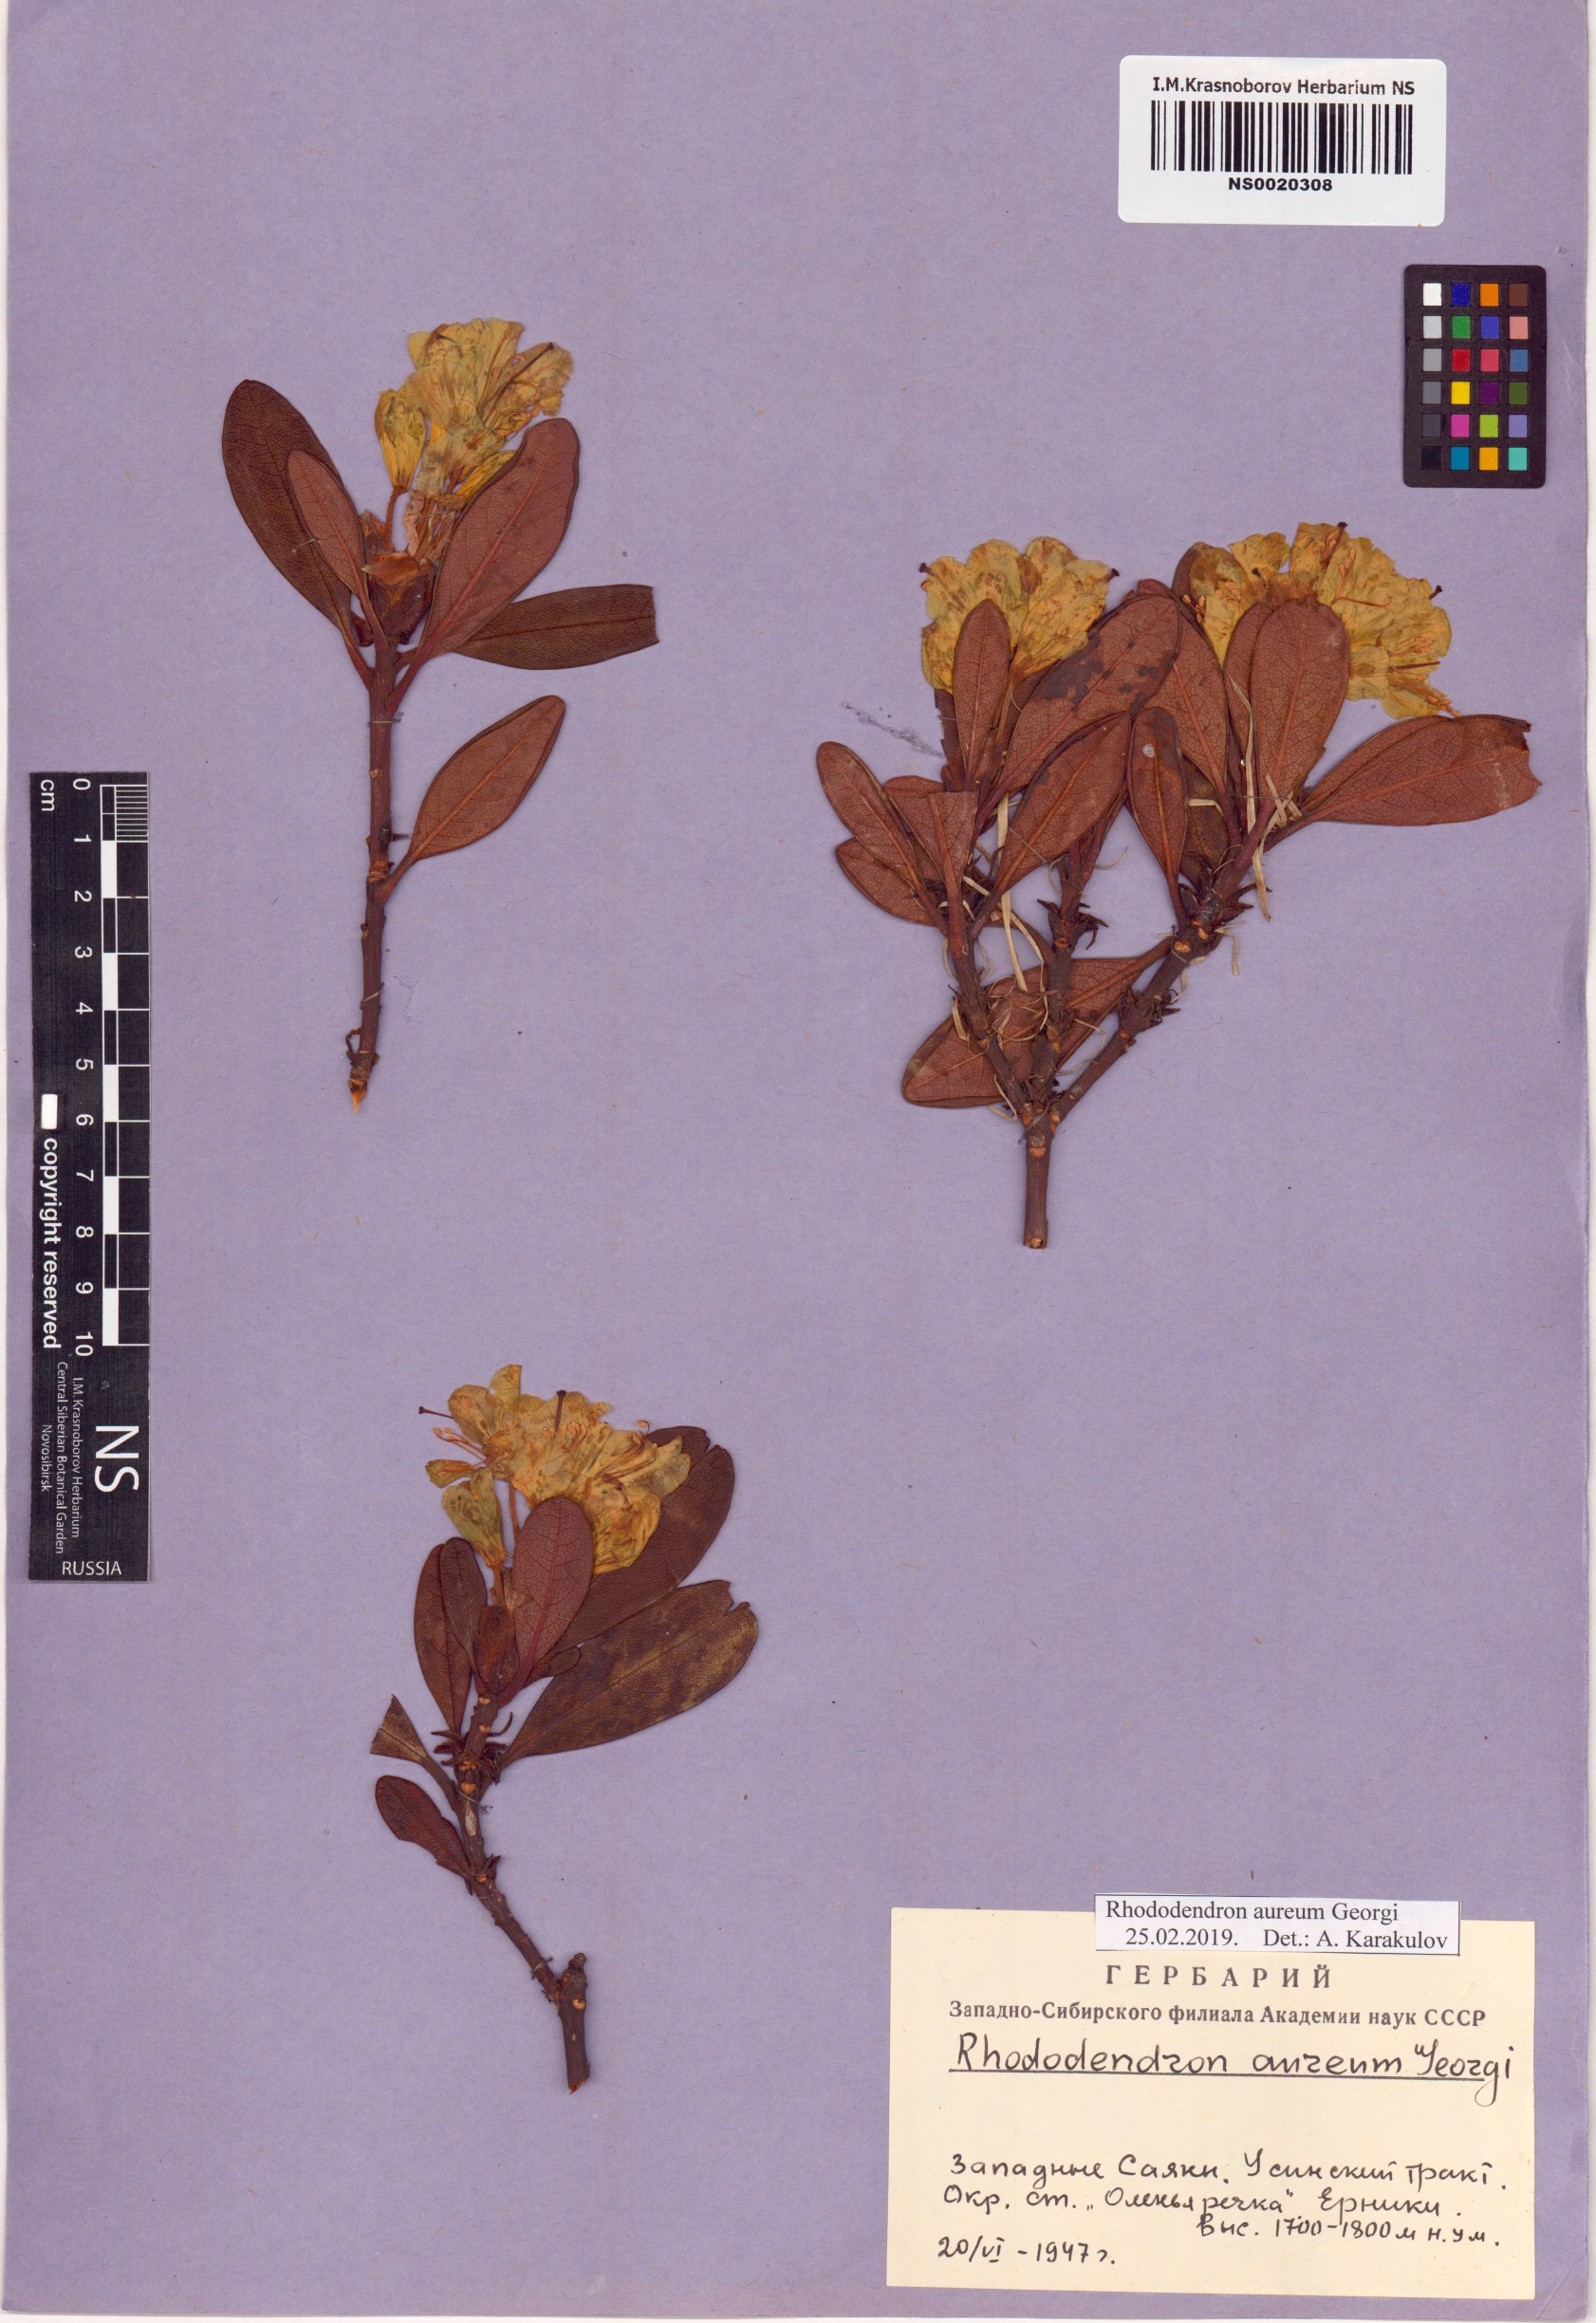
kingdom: Plantae
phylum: Tracheophyta
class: Magnoliopsida
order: Ericales
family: Ericaceae
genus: Rhododendron
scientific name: Rhododendron aureum
